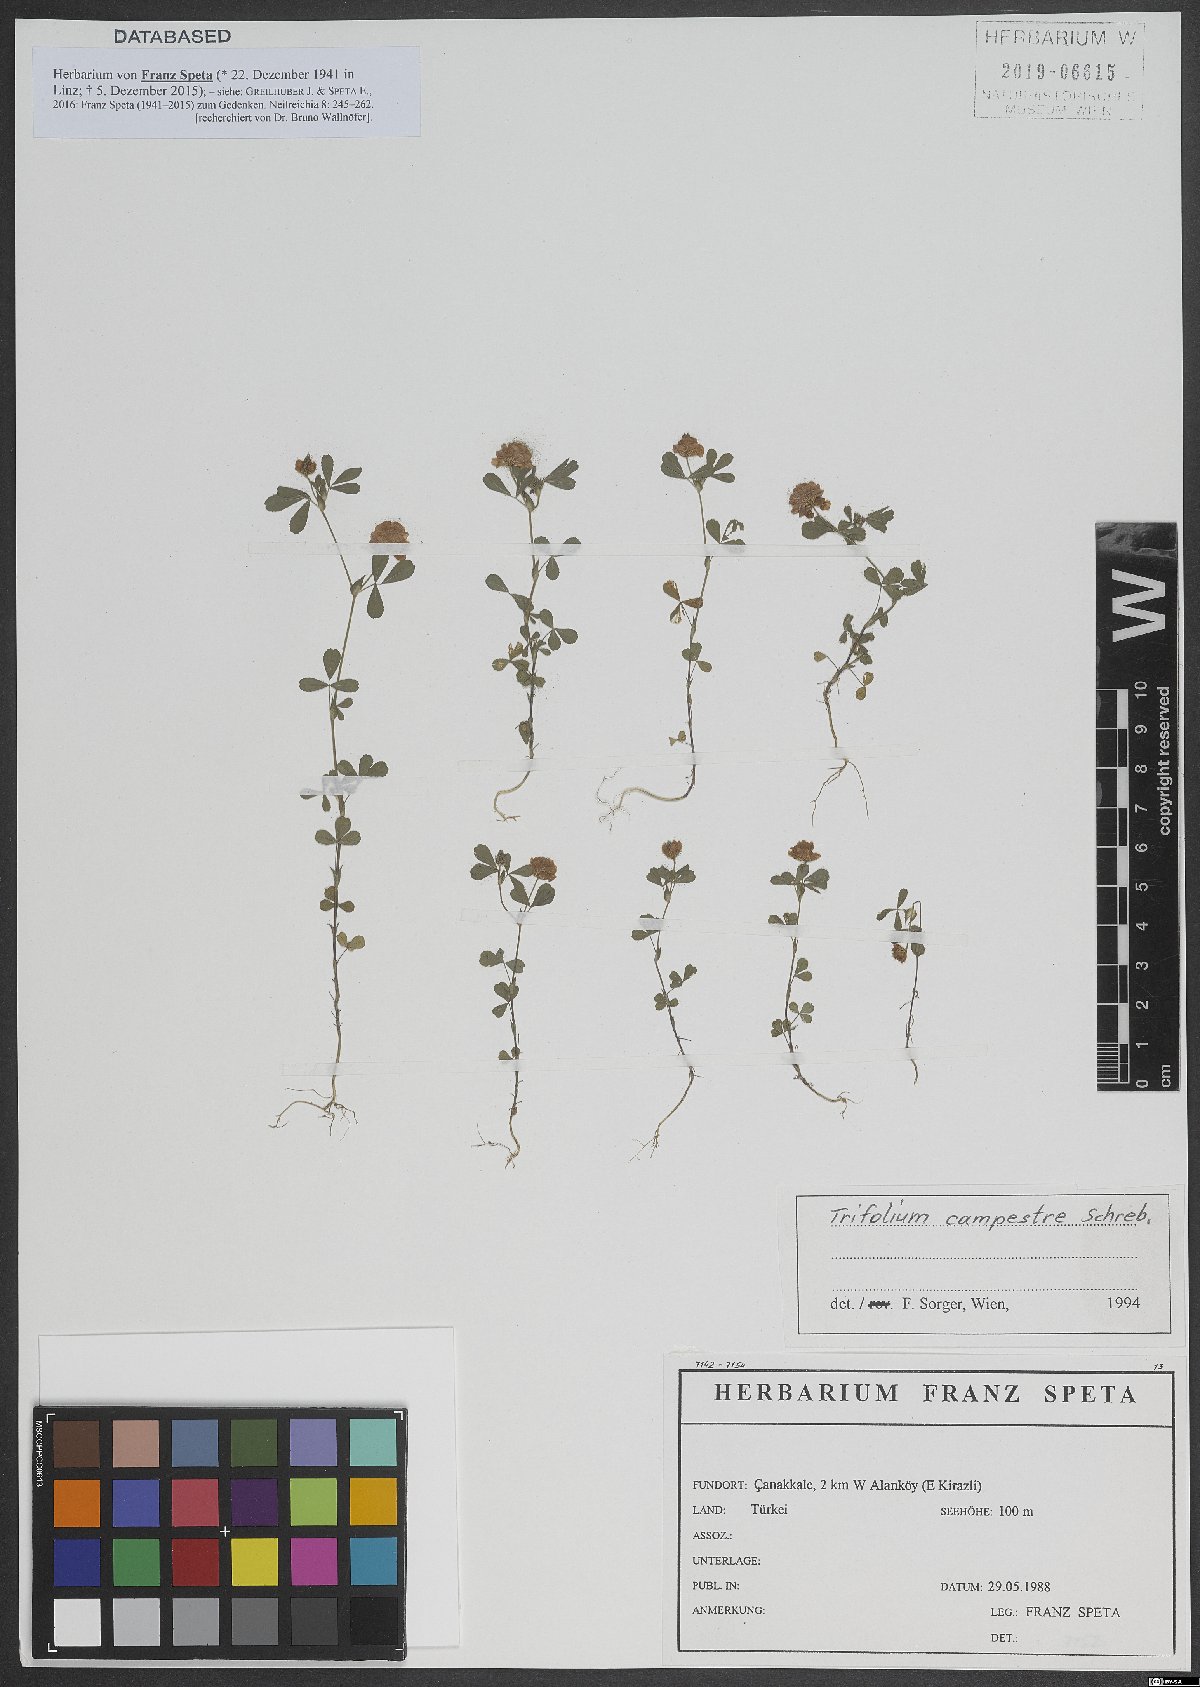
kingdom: Plantae
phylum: Tracheophyta
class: Magnoliopsida
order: Fabales
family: Fabaceae
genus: Trifolium
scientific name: Trifolium campestre
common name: Field clover
